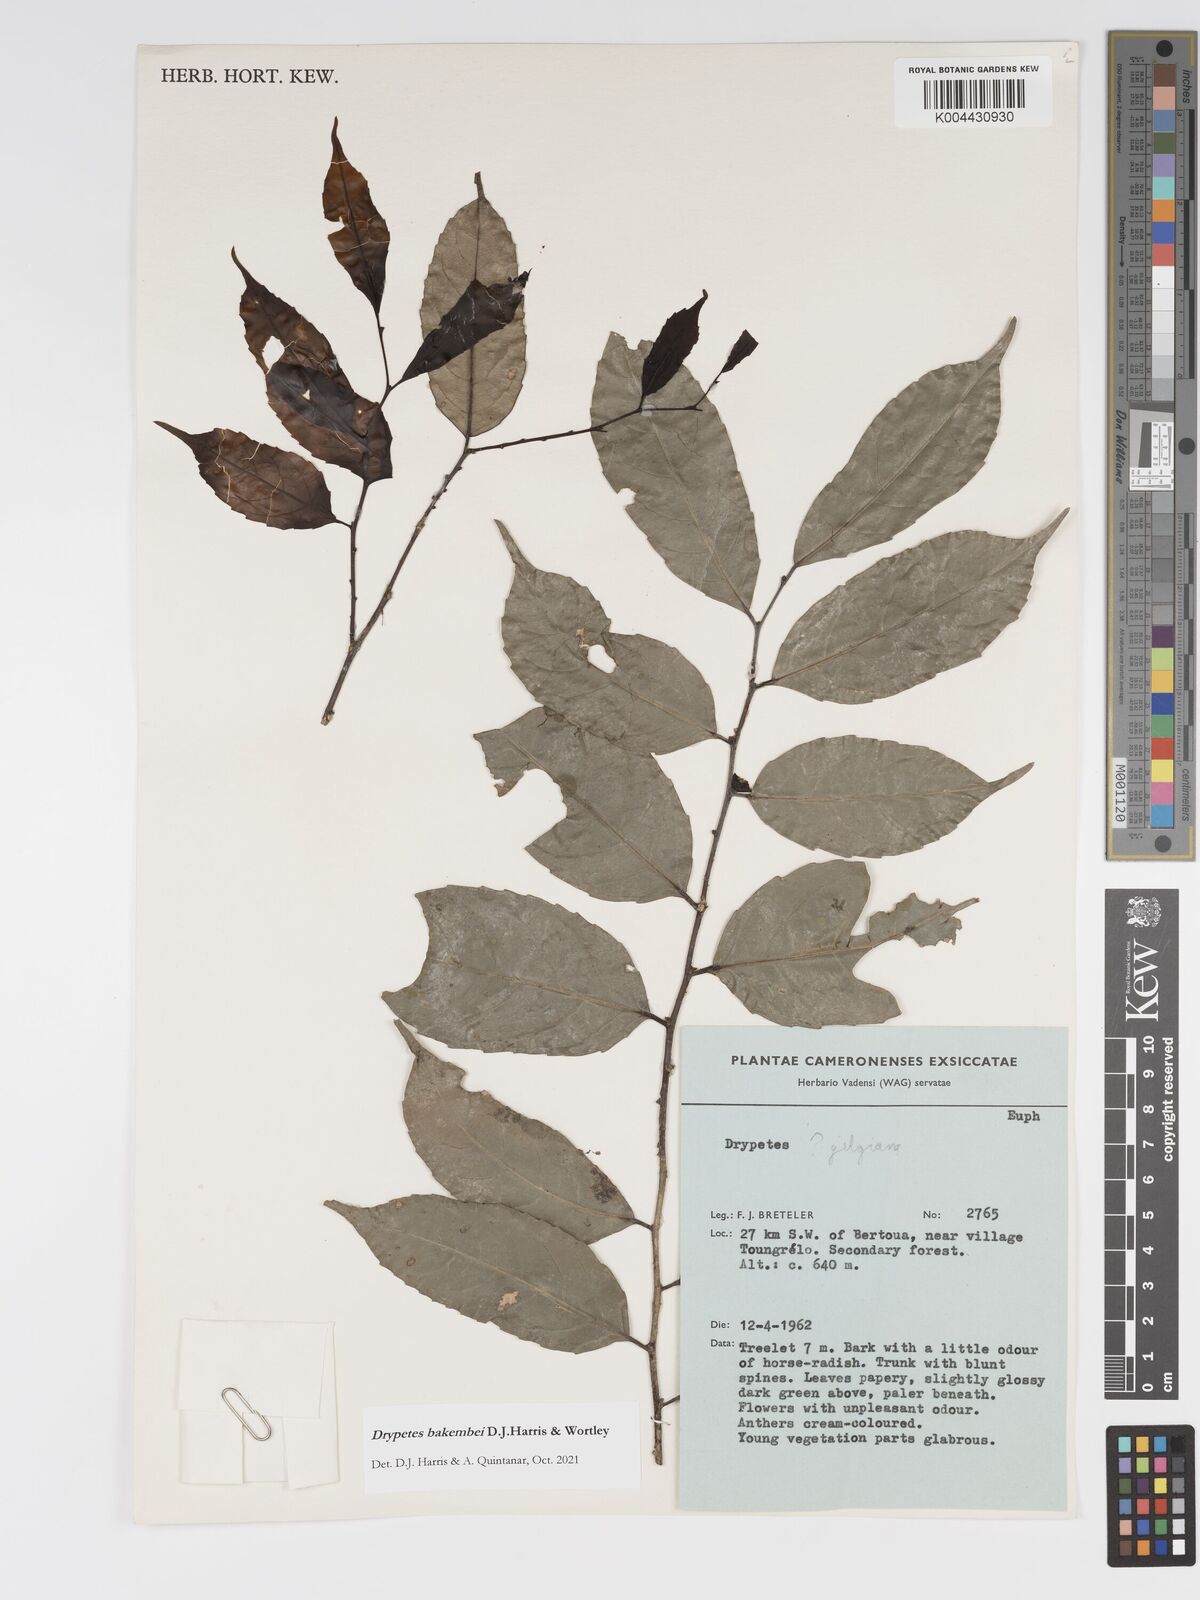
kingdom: Plantae
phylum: Tracheophyta
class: Magnoliopsida
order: Malpighiales
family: Putranjivaceae
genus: Drypetes
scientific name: Drypetes bakembei
